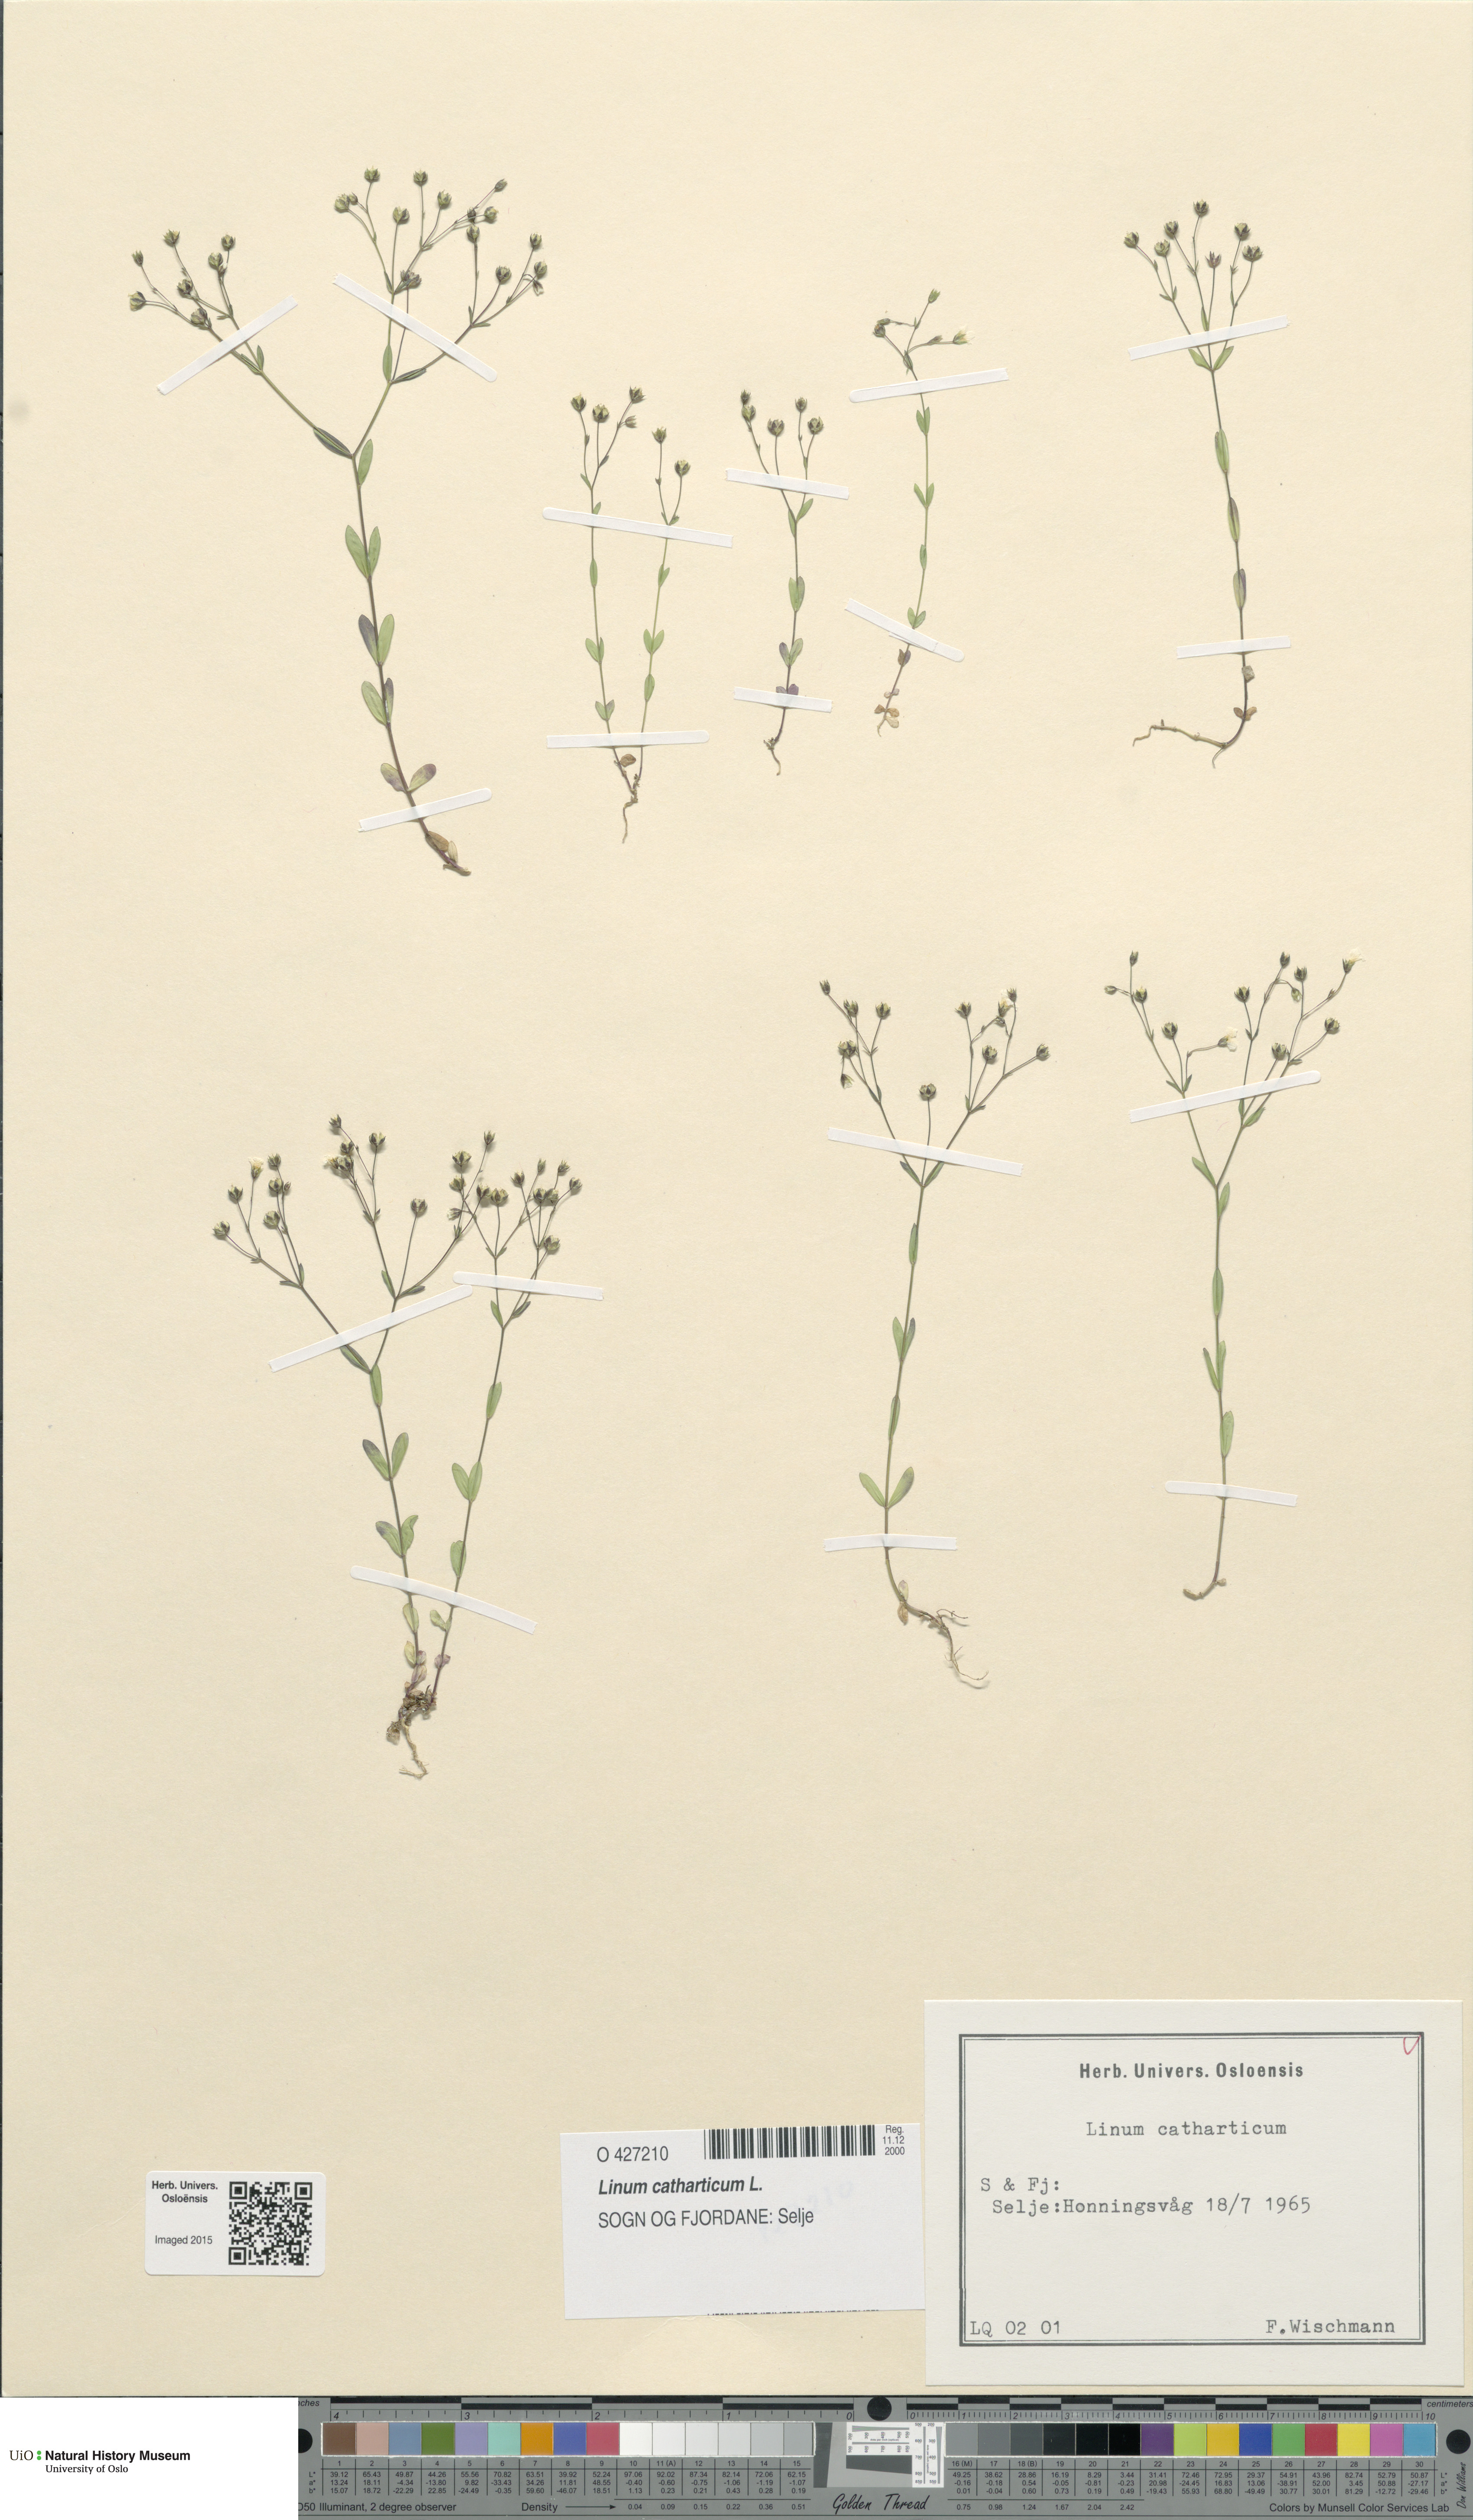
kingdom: Plantae
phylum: Tracheophyta
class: Magnoliopsida
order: Malpighiales
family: Linaceae
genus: Linum
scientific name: Linum catharticum
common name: Fairy flax
